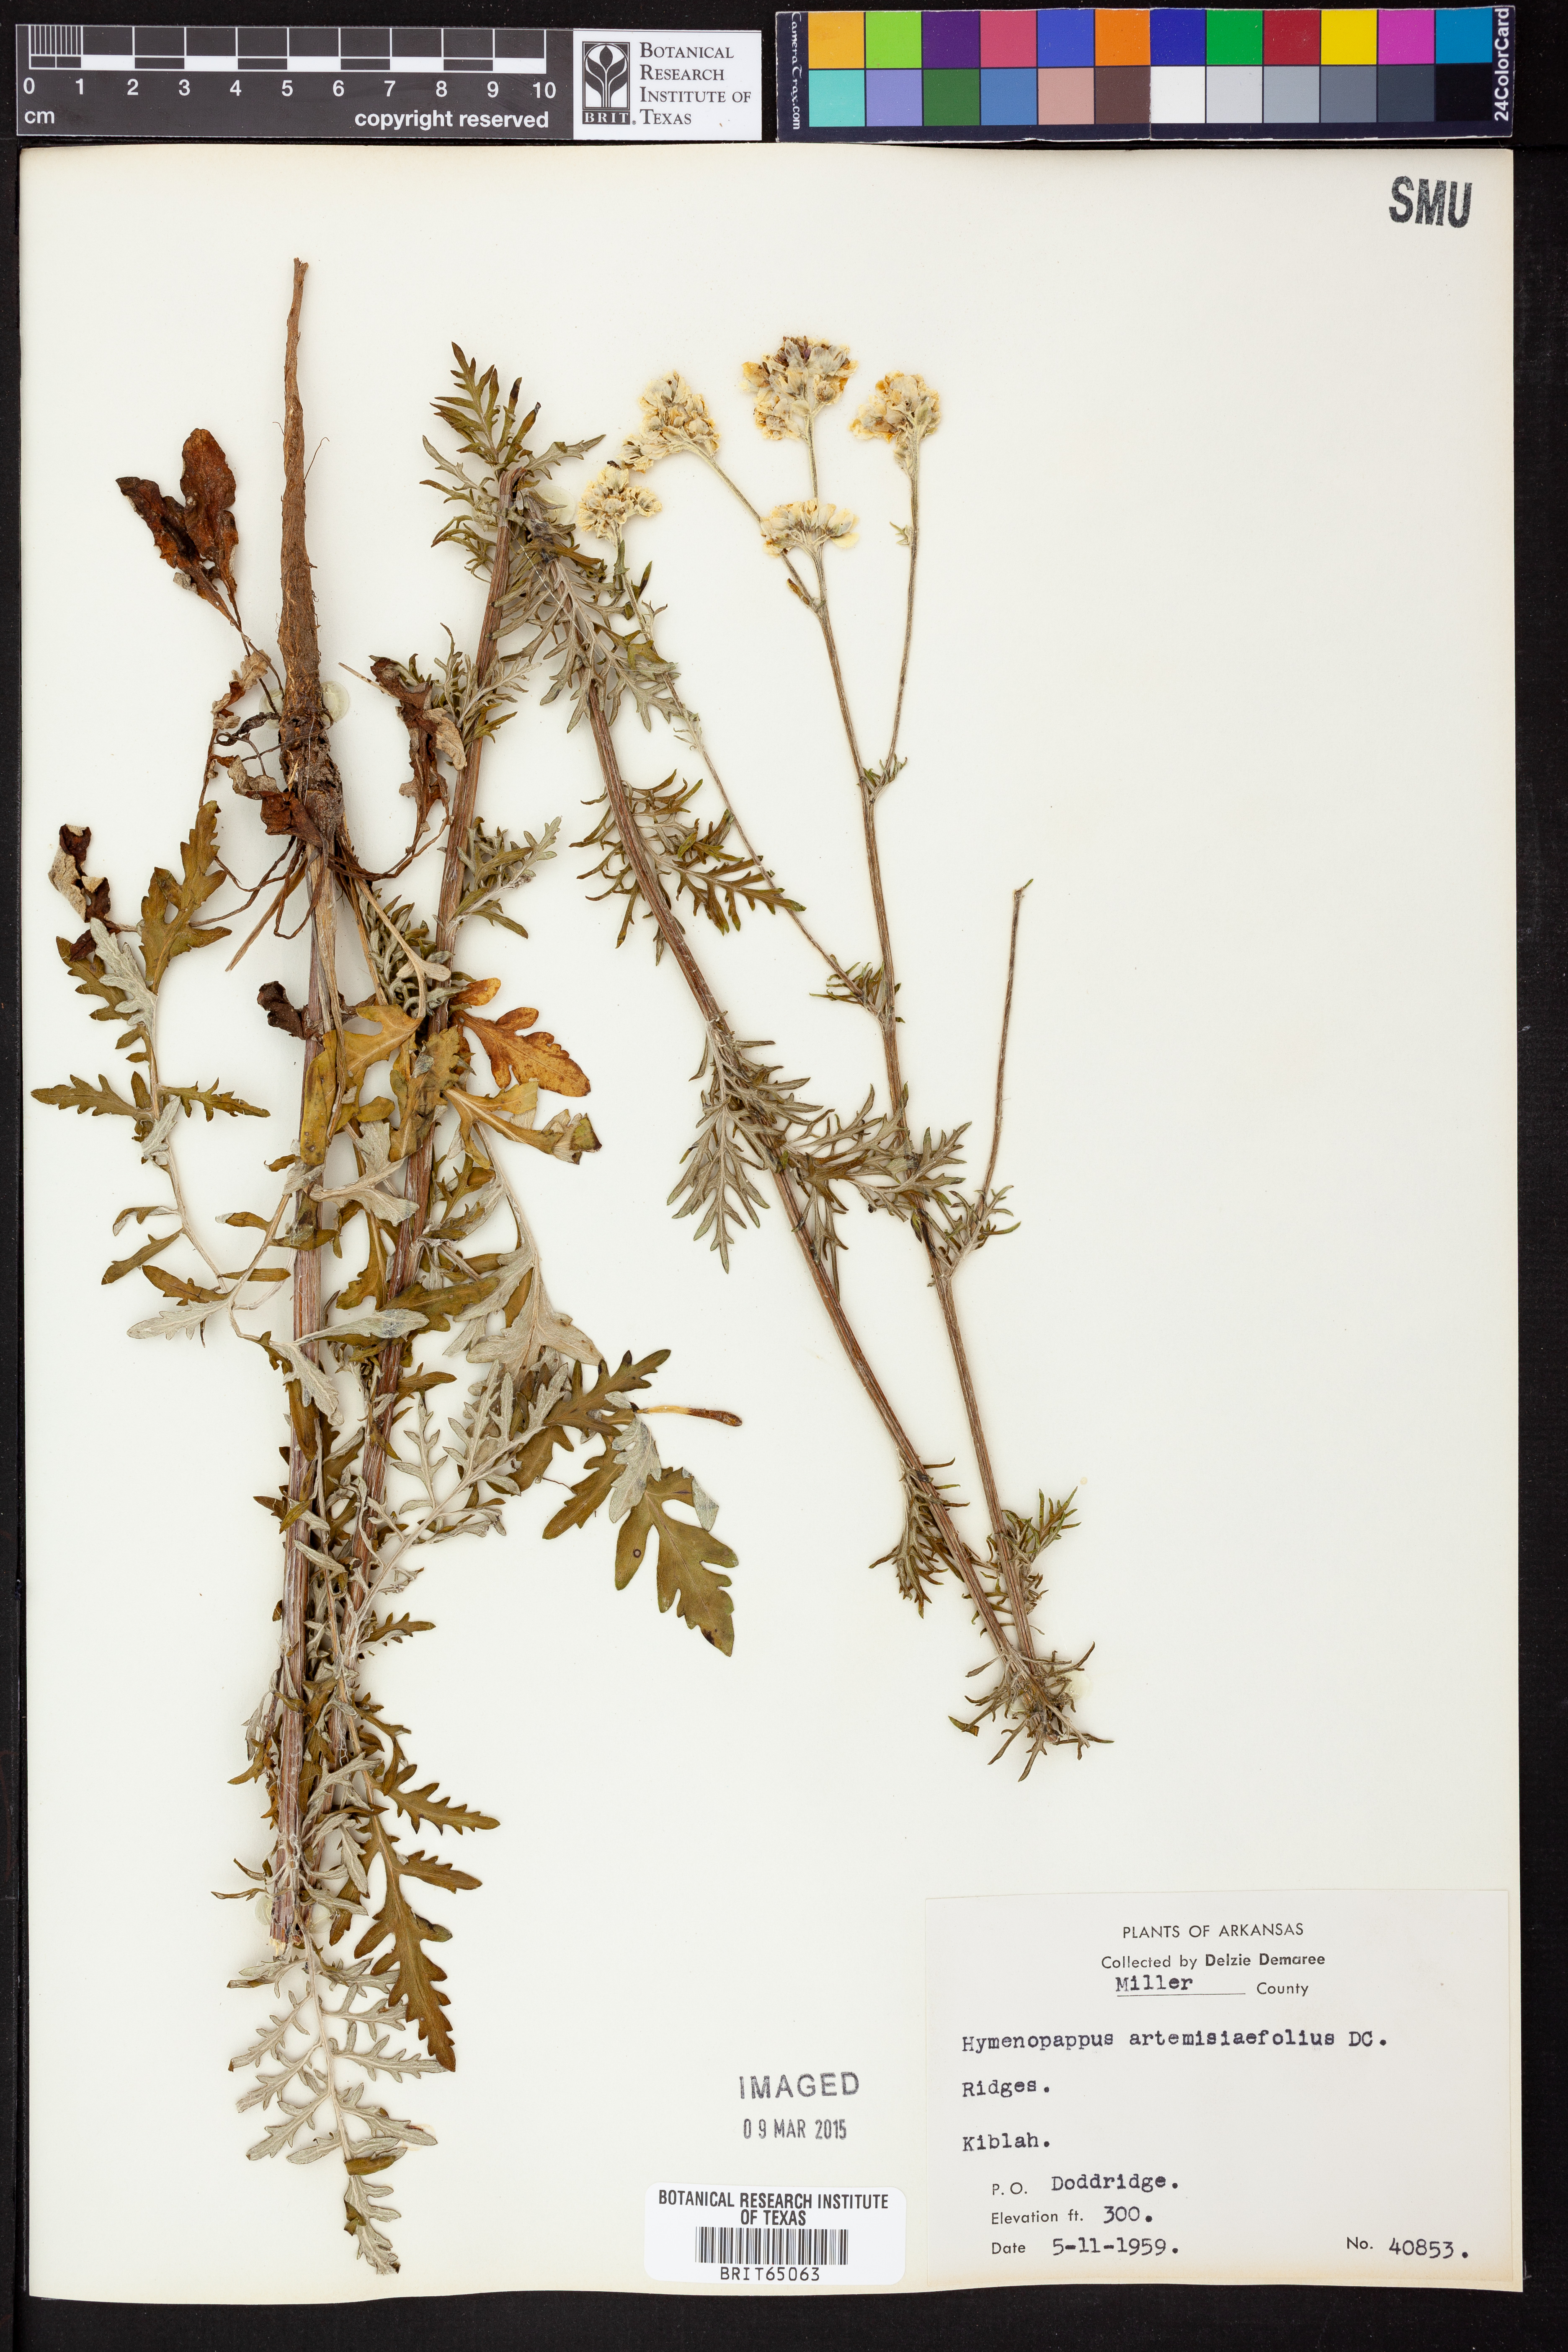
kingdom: Plantae
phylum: Tracheophyta
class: Magnoliopsida
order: Asterales
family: Asteraceae
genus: Hymenopappus
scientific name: Hymenopappus artemisiifolius
